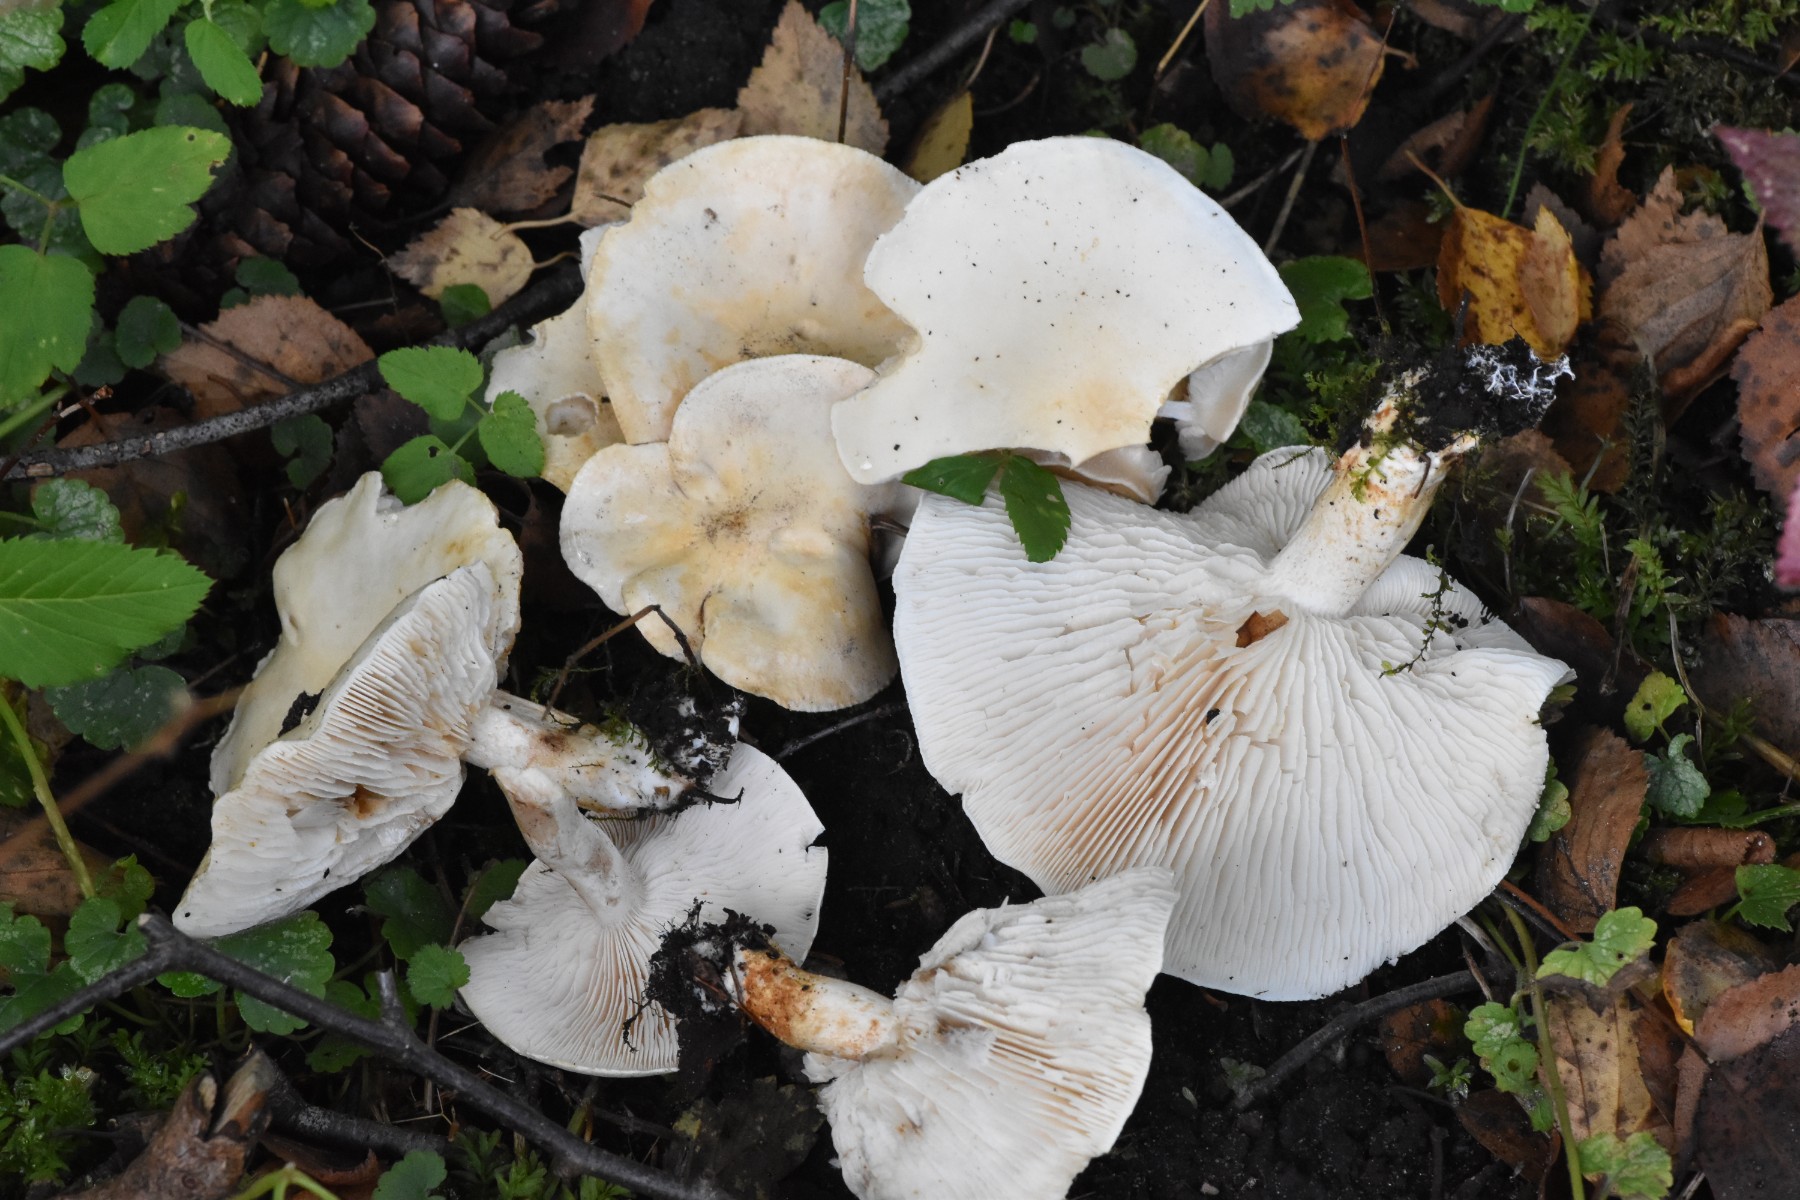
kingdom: Fungi
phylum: Basidiomycota
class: Agaricomycetes
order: Agaricales
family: Tricholomataceae
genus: Tricholoma
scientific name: Tricholoma stiparophyllum
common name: hvid ridderhat
